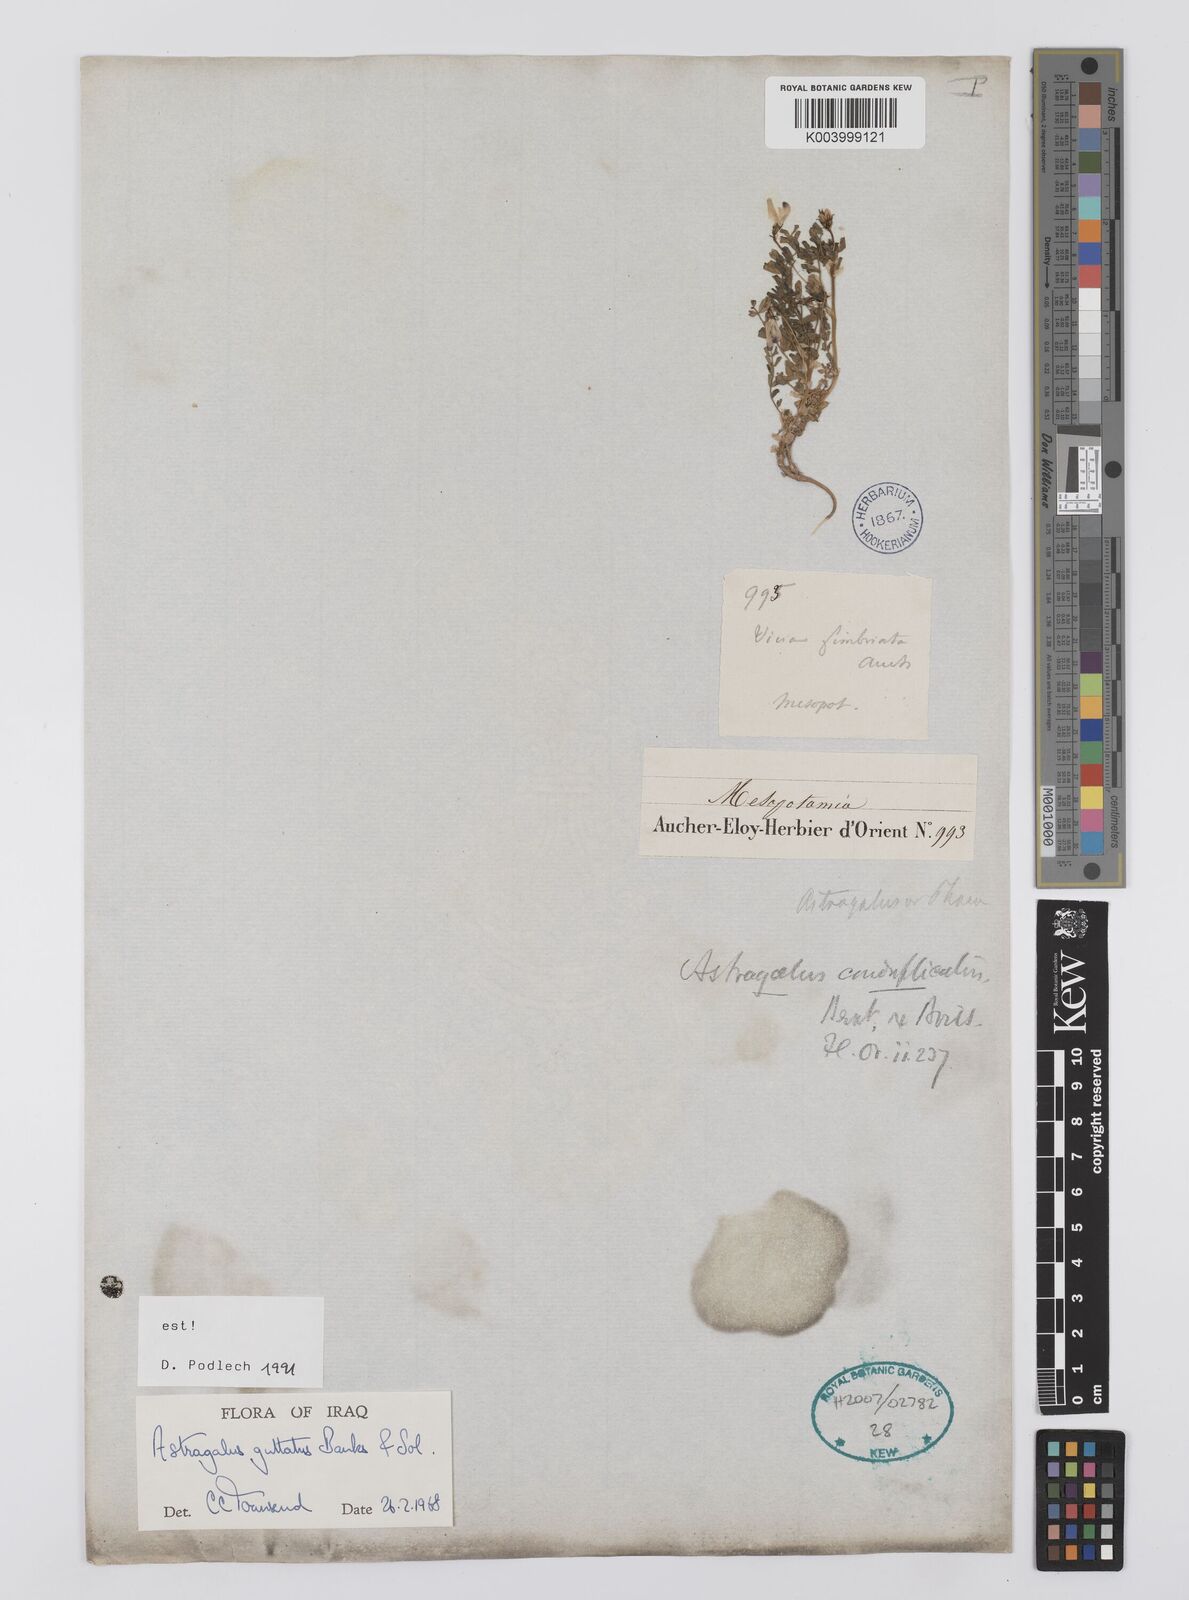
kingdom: Plantae
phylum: Tracheophyta
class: Magnoliopsida
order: Fabales
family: Fabaceae
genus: Astragalus
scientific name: Astragalus guttatus
